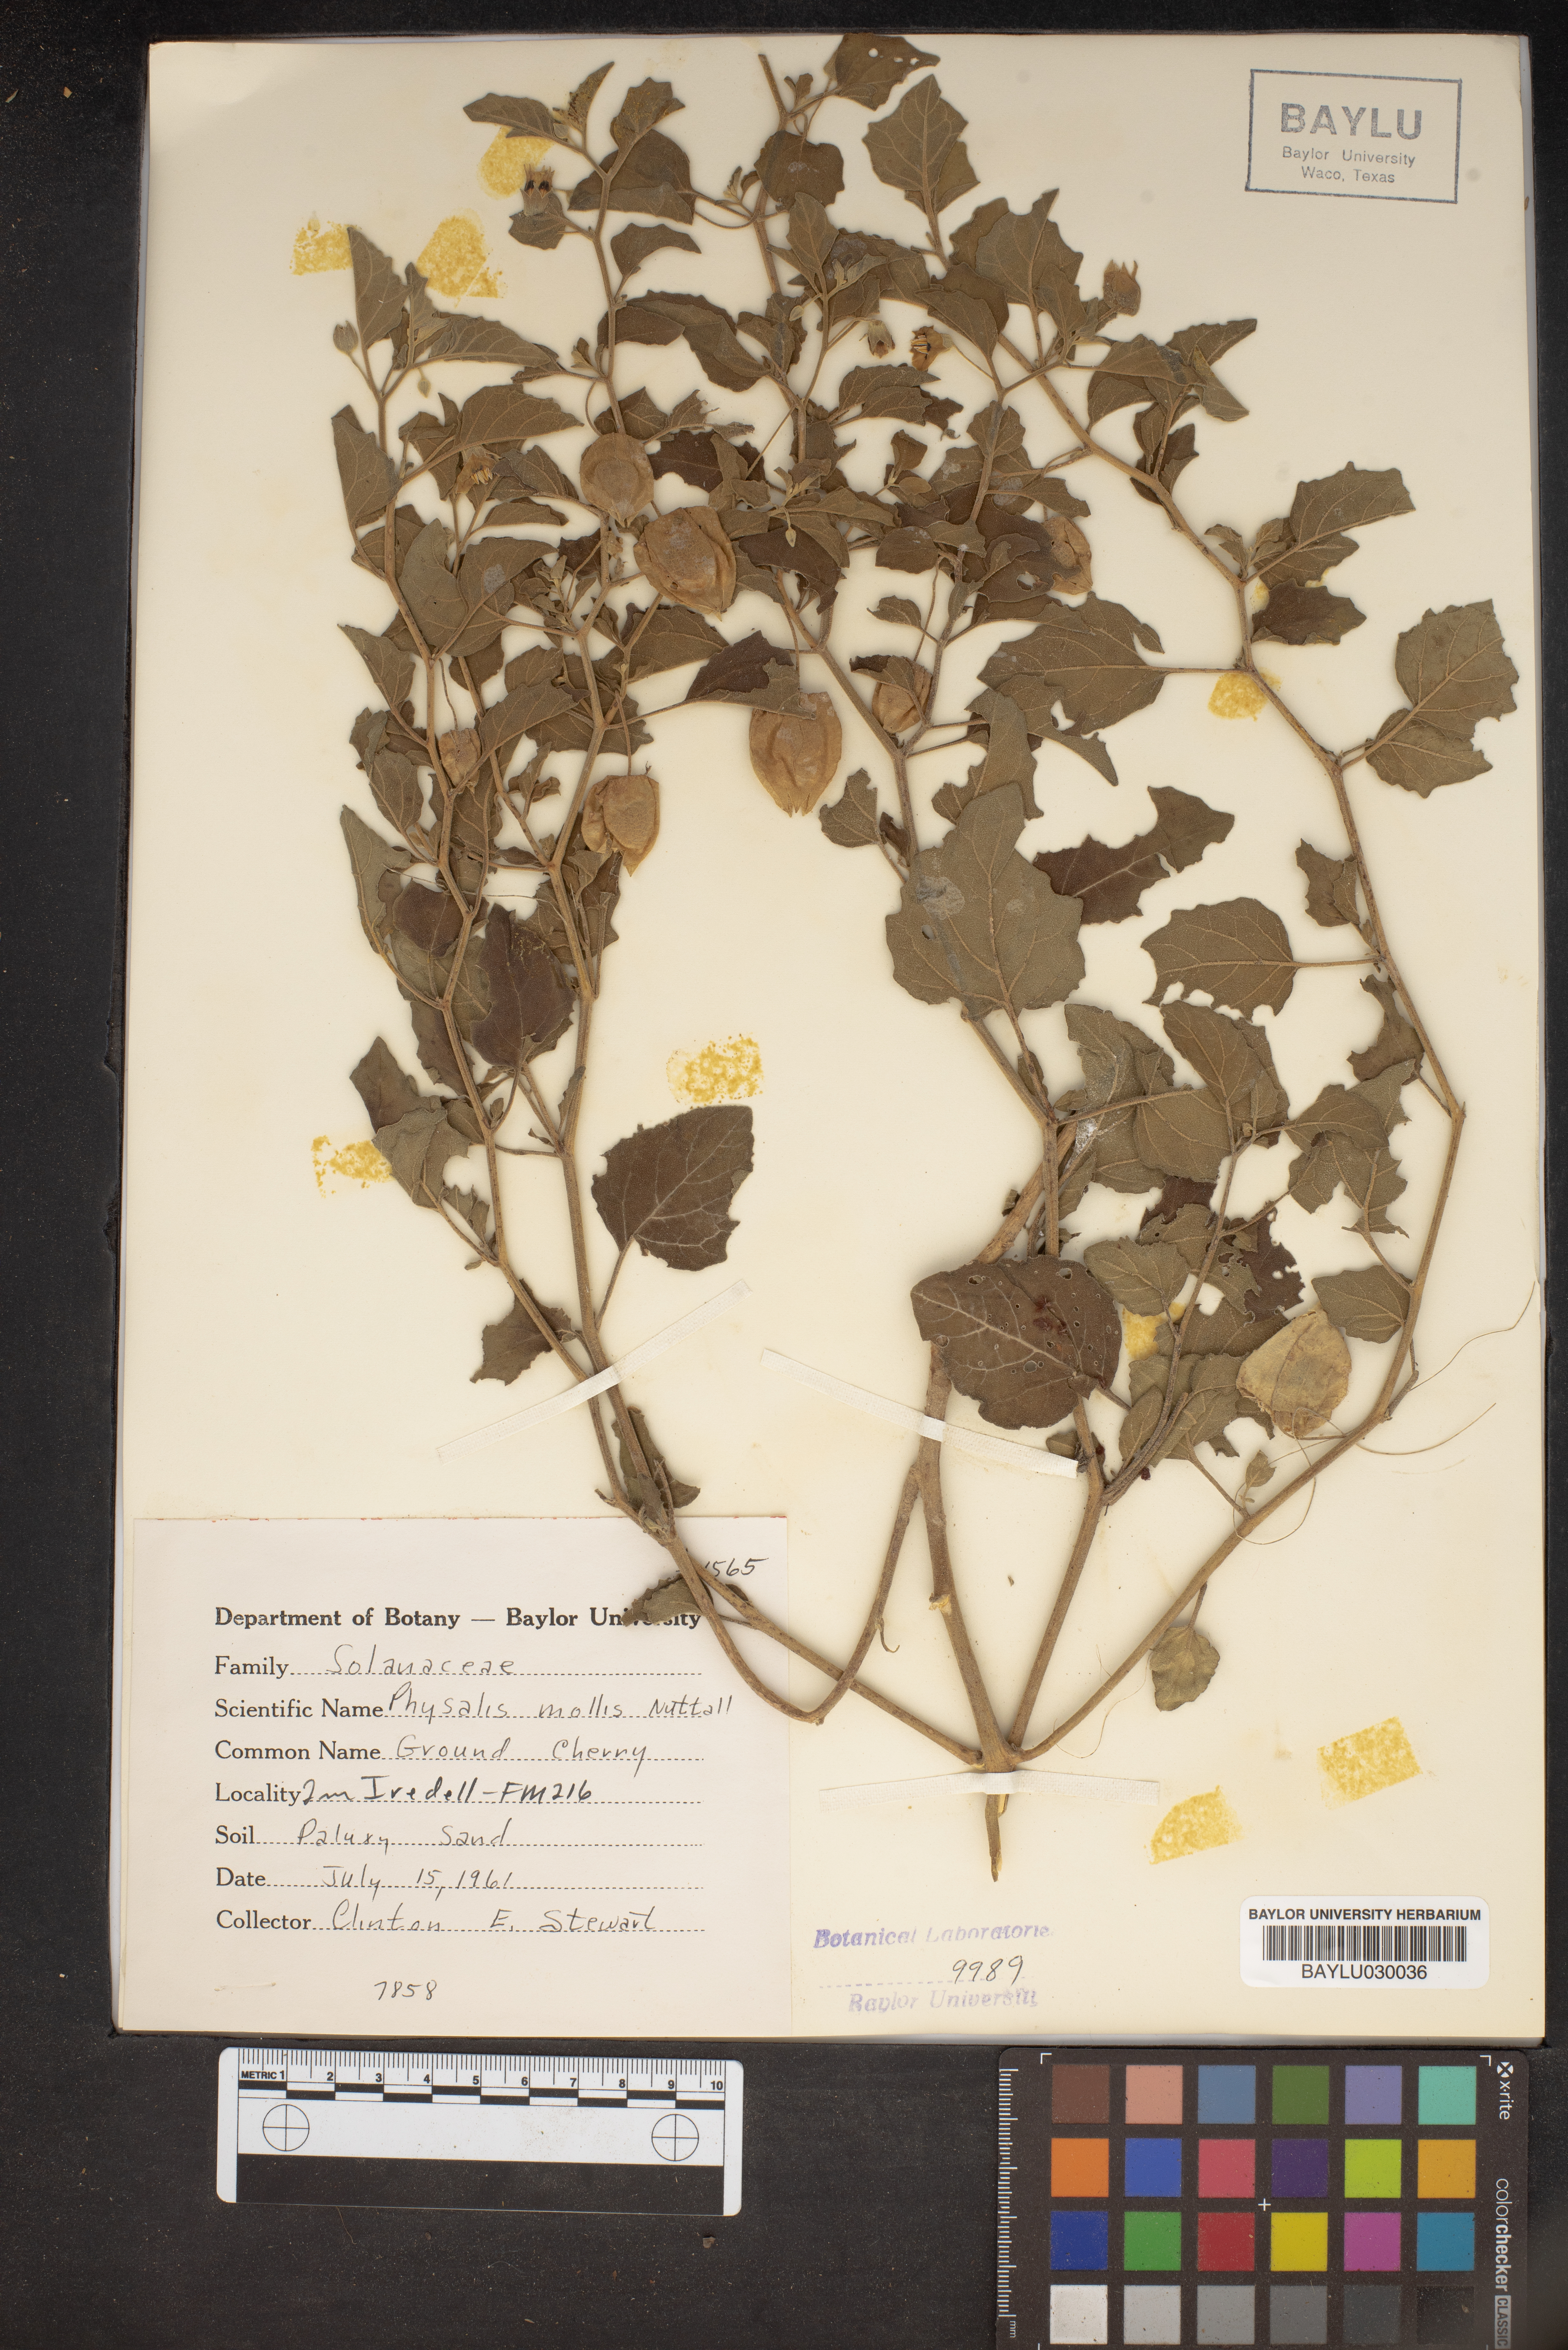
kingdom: Plantae
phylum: Tracheophyta
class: Magnoliopsida
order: Solanales
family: Solanaceae
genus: Physalis
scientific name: Physalis mollis
